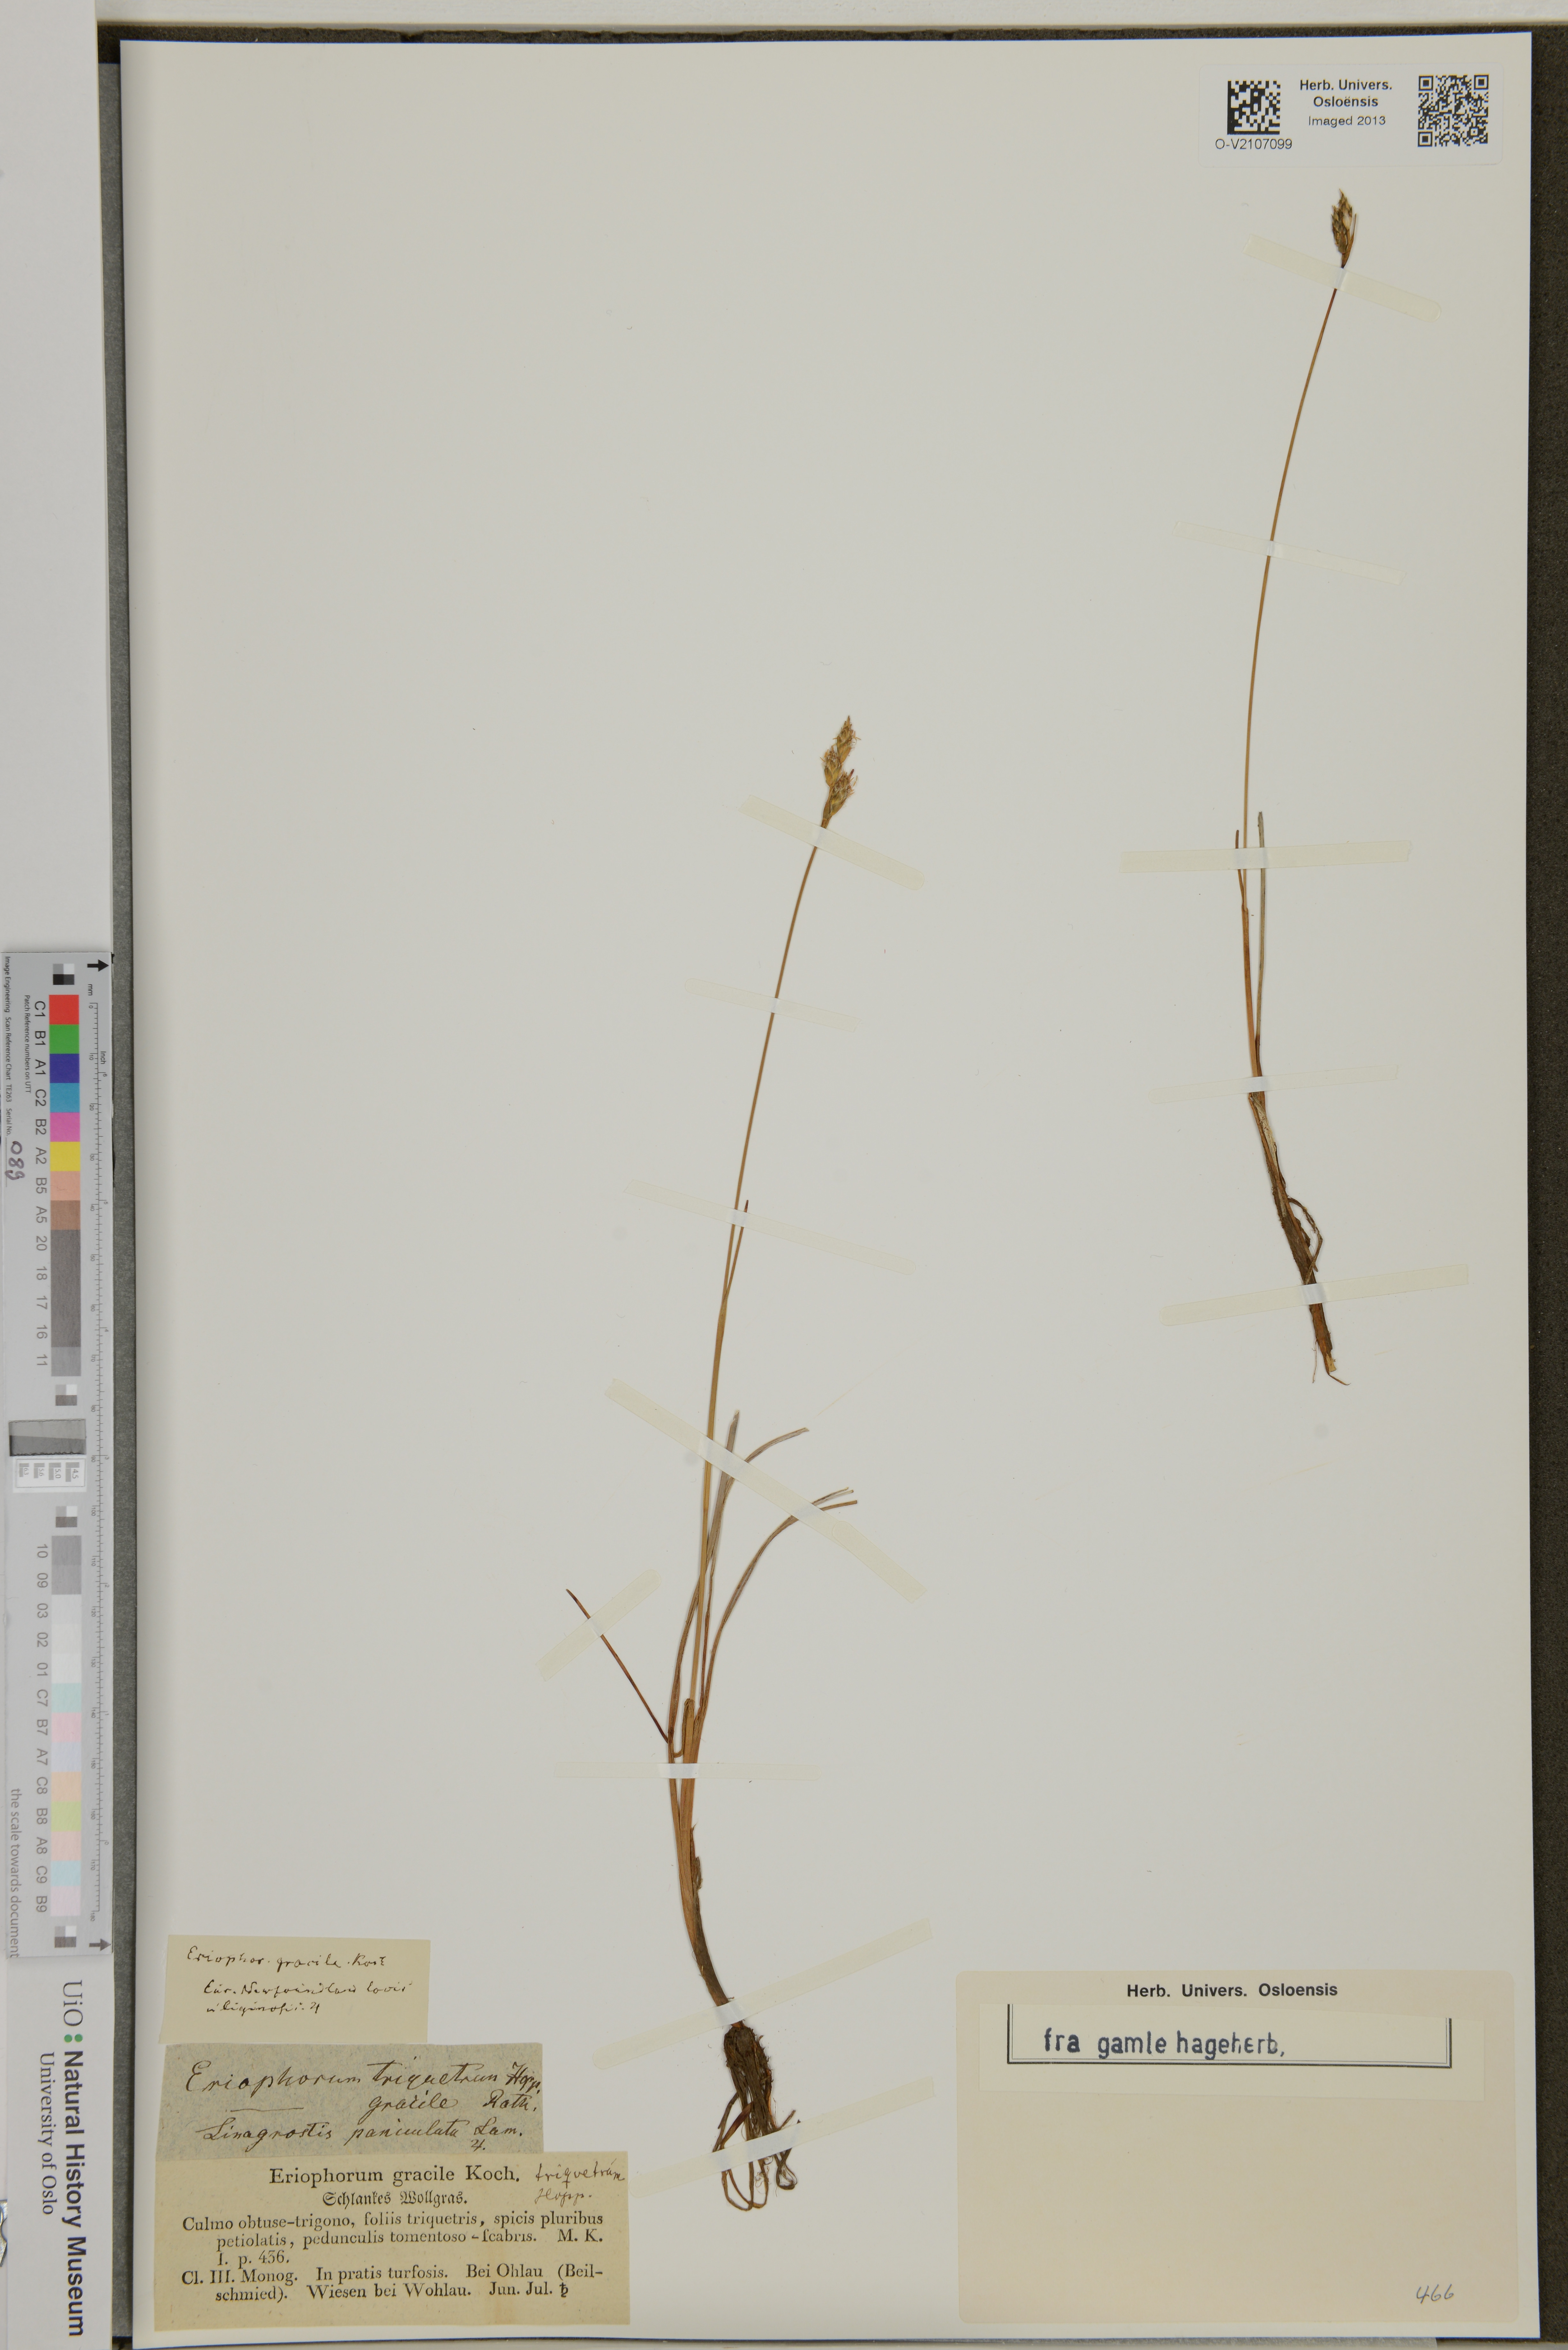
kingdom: Plantae
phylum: Tracheophyta
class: Liliopsida
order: Poales
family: Cyperaceae
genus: Eriophorum
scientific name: Eriophorum gracile
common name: Slender cottongrass
